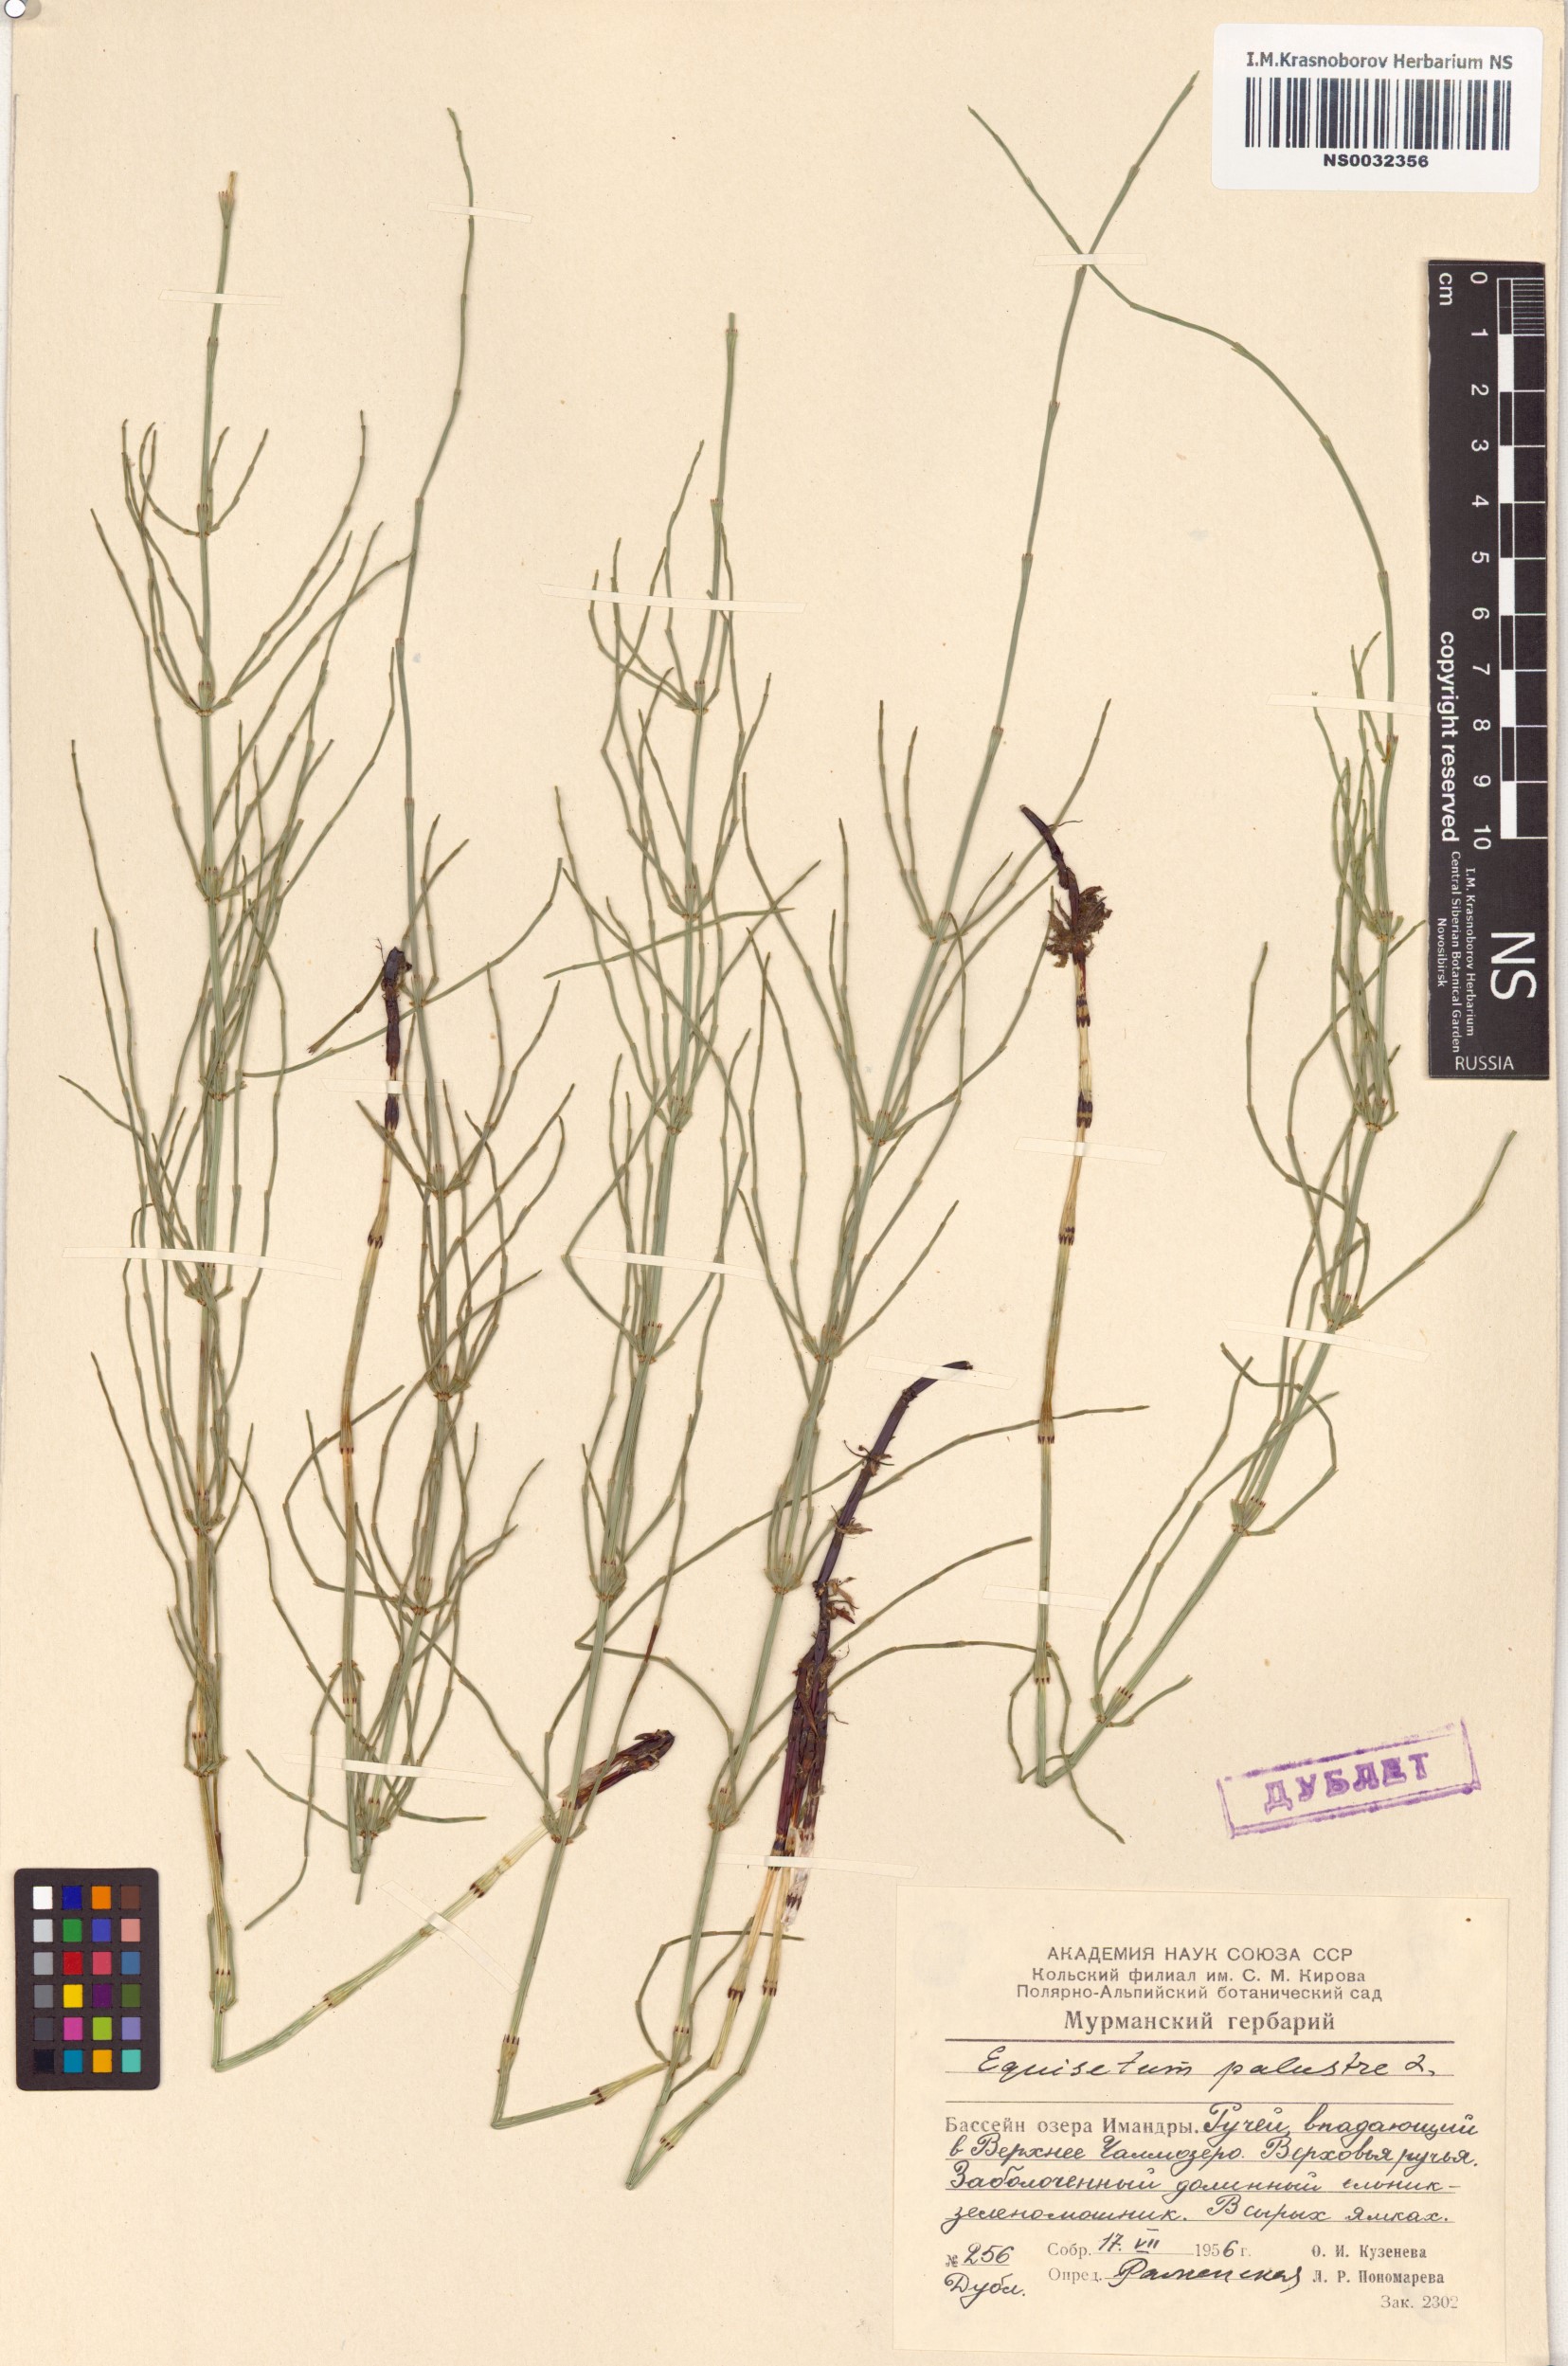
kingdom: Plantae
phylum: Tracheophyta
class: Polypodiopsida
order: Equisetales
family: Equisetaceae
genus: Equisetum
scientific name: Equisetum palustre
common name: Marsh horsetail
